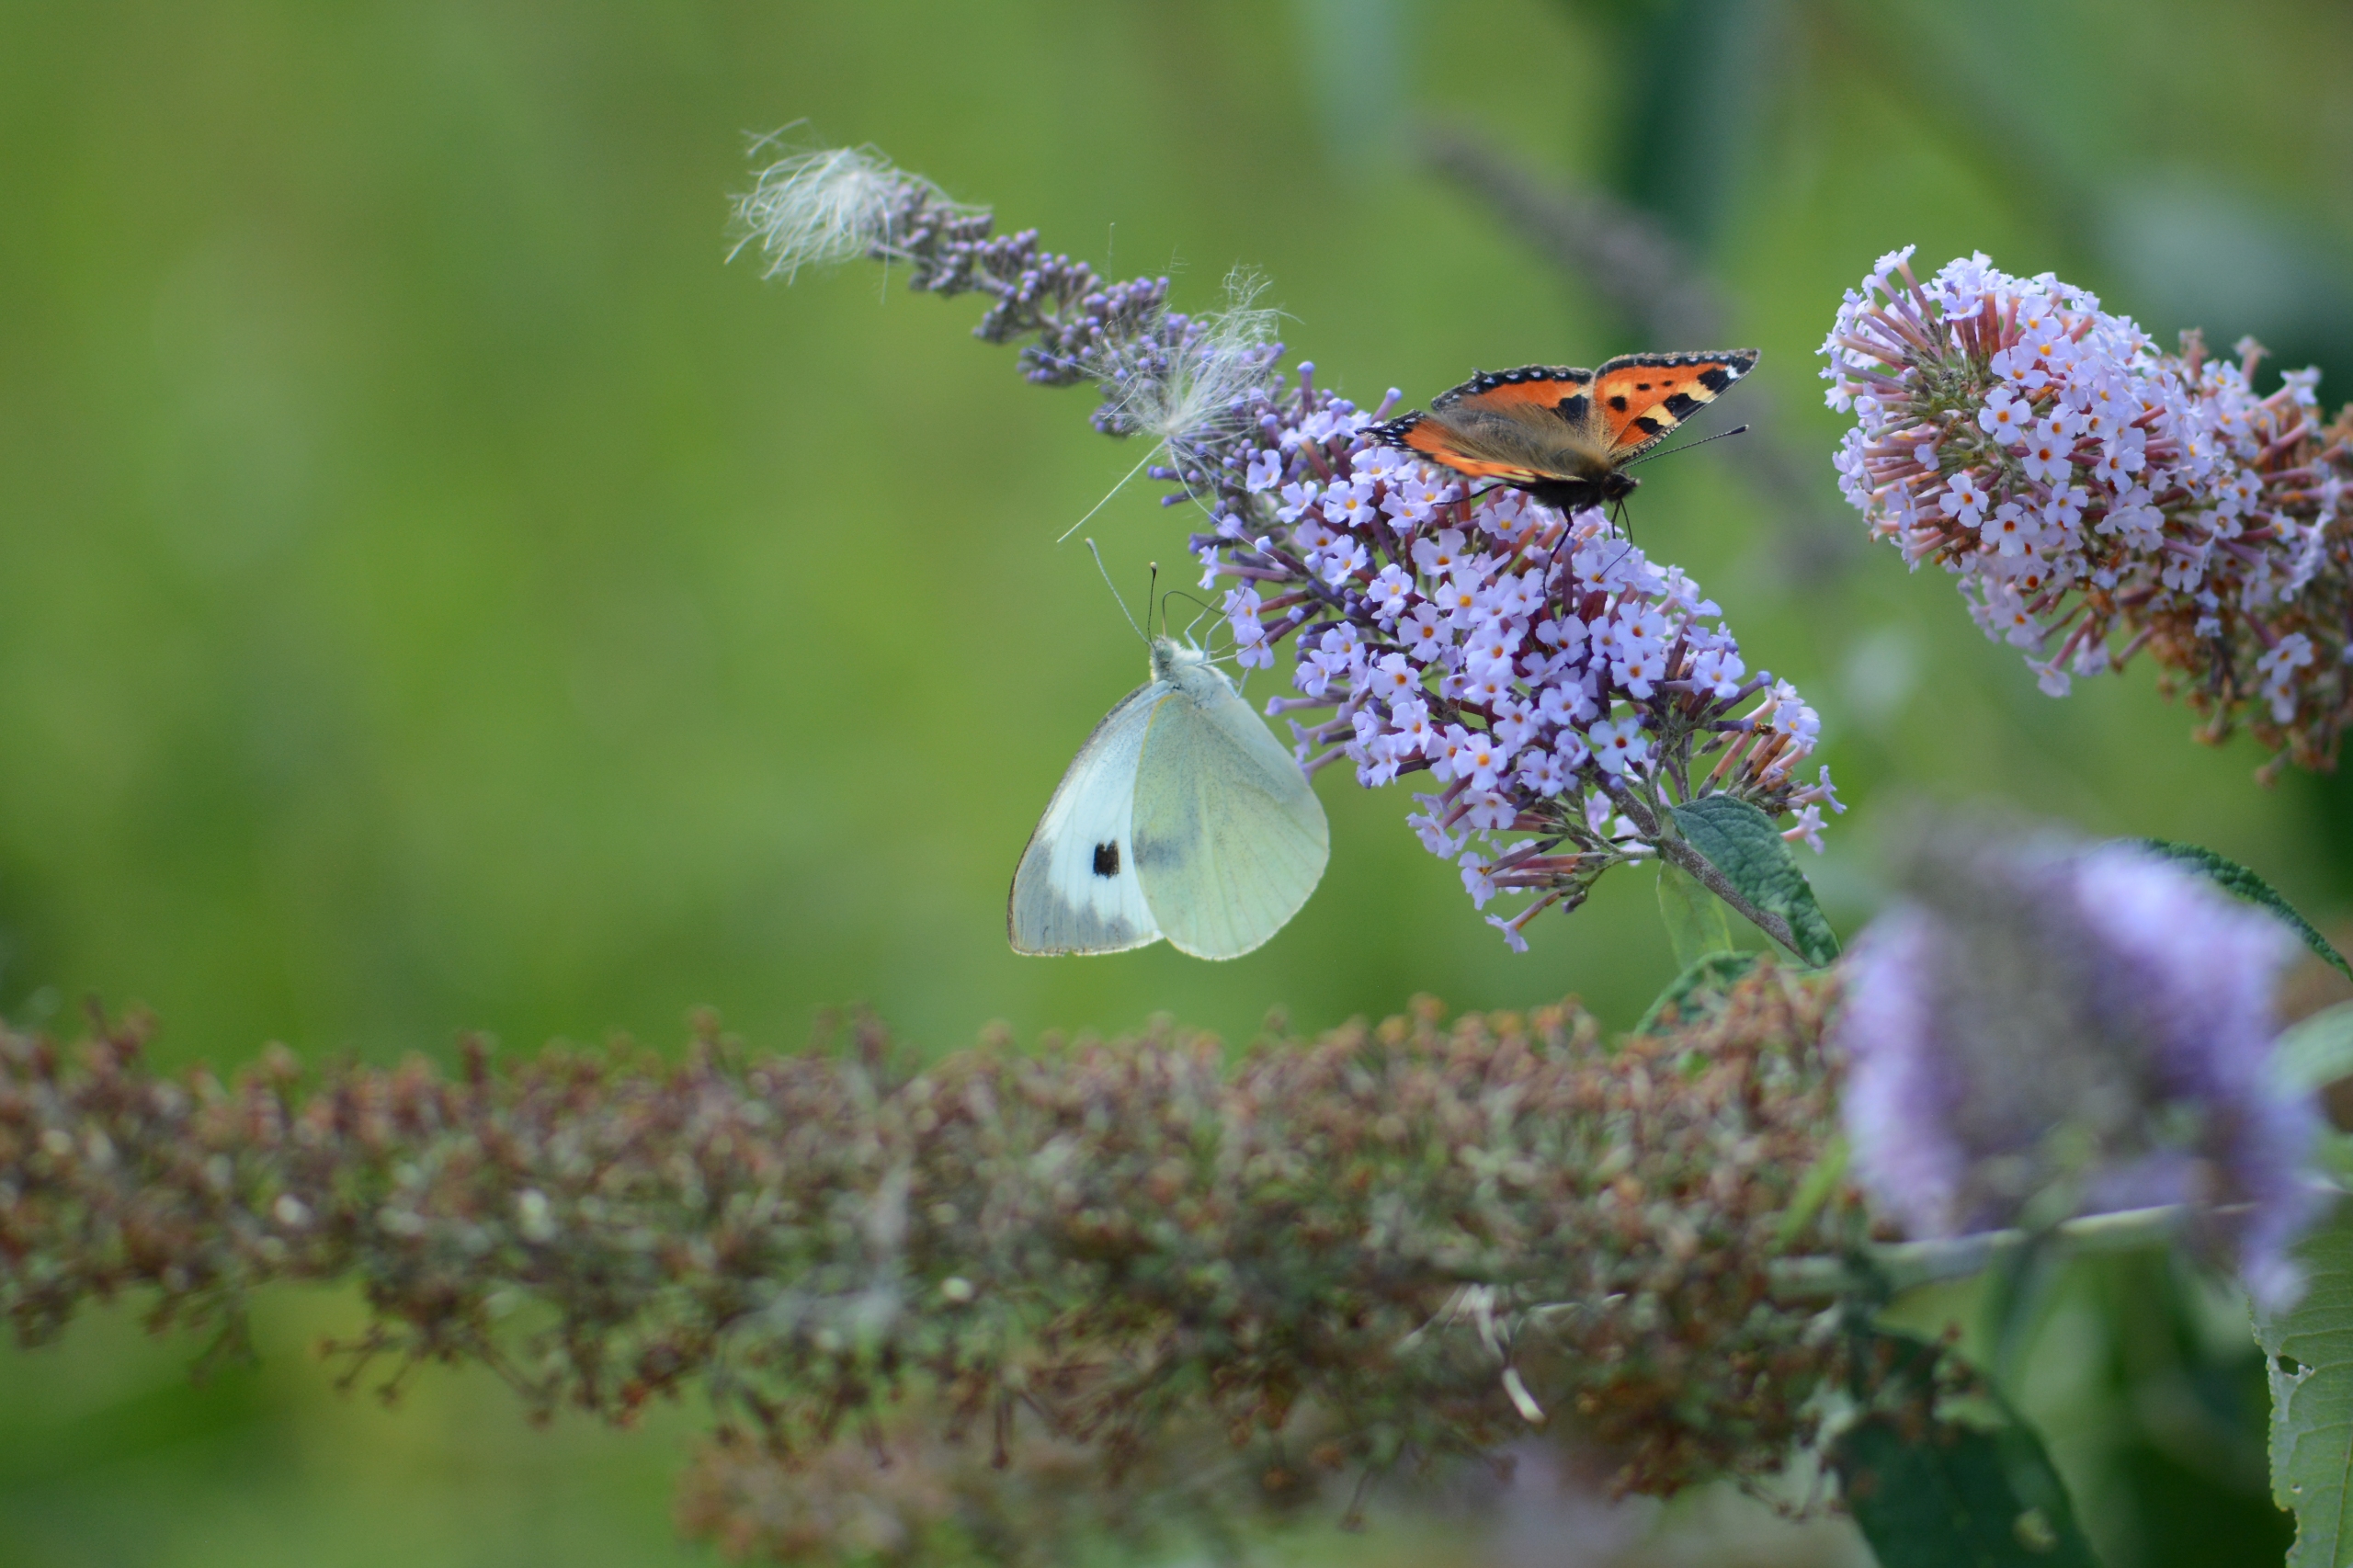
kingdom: Animalia
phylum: Arthropoda
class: Insecta
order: Lepidoptera
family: Pieridae
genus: Pieris
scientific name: Pieris brassicae
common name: Stor kålsommerfugl
